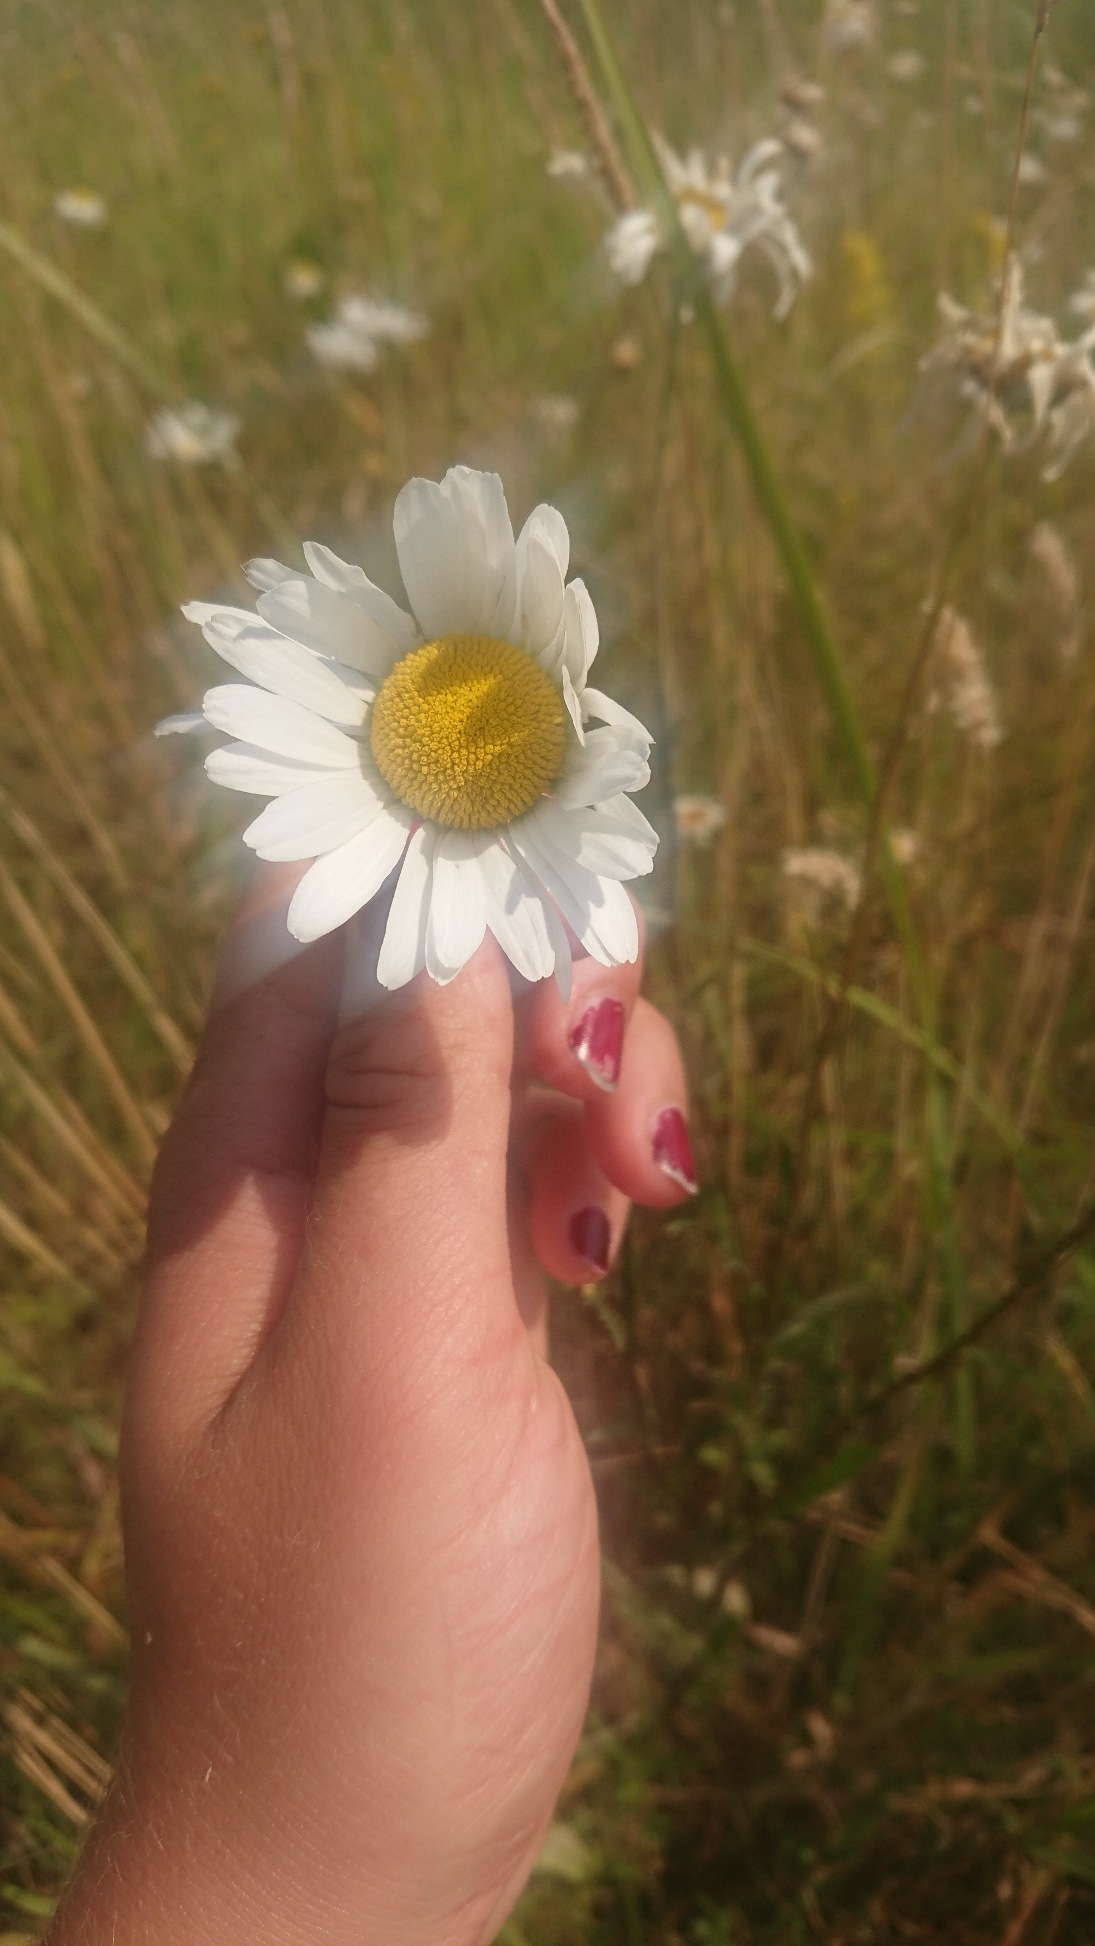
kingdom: Plantae
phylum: Tracheophyta
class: Magnoliopsida
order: Asterales
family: Asteraceae
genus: Leucanthemum
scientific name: Leucanthemum vulgare
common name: Hvid okseøje
